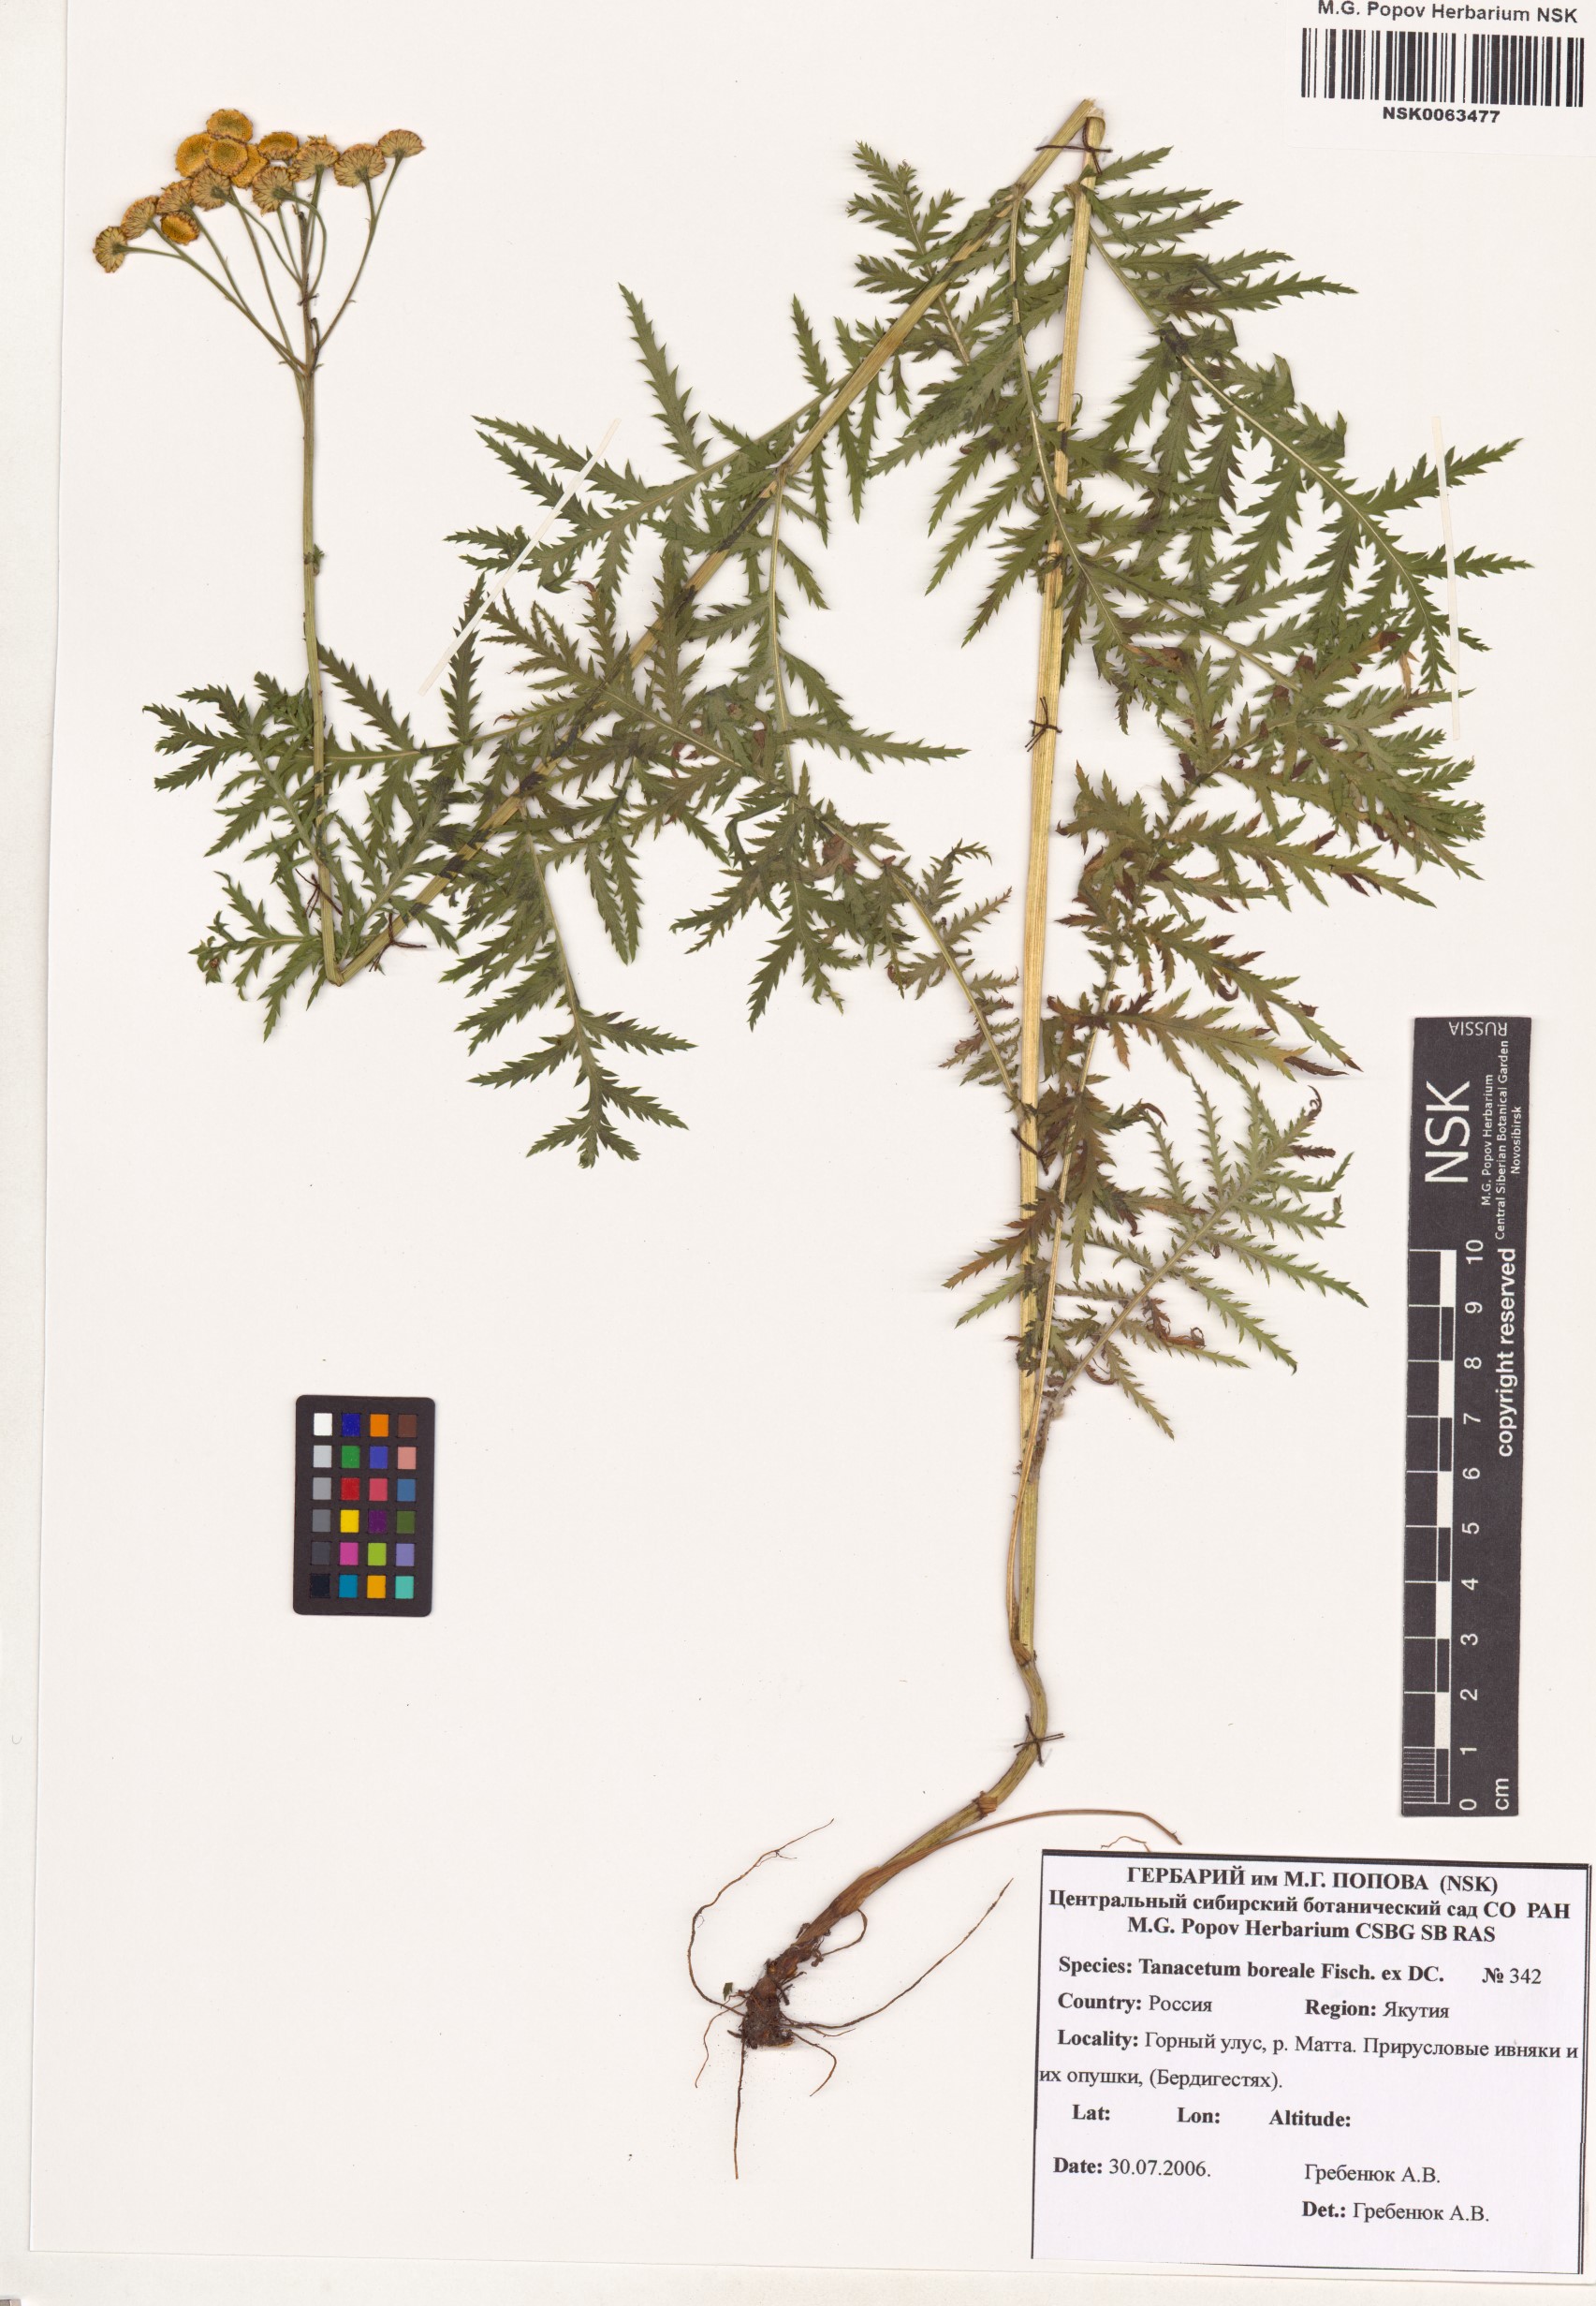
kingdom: Plantae
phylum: Tracheophyta
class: Magnoliopsida
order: Asterales
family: Asteraceae
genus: Tanacetum
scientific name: Tanacetum vulgare
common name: Common tansy
